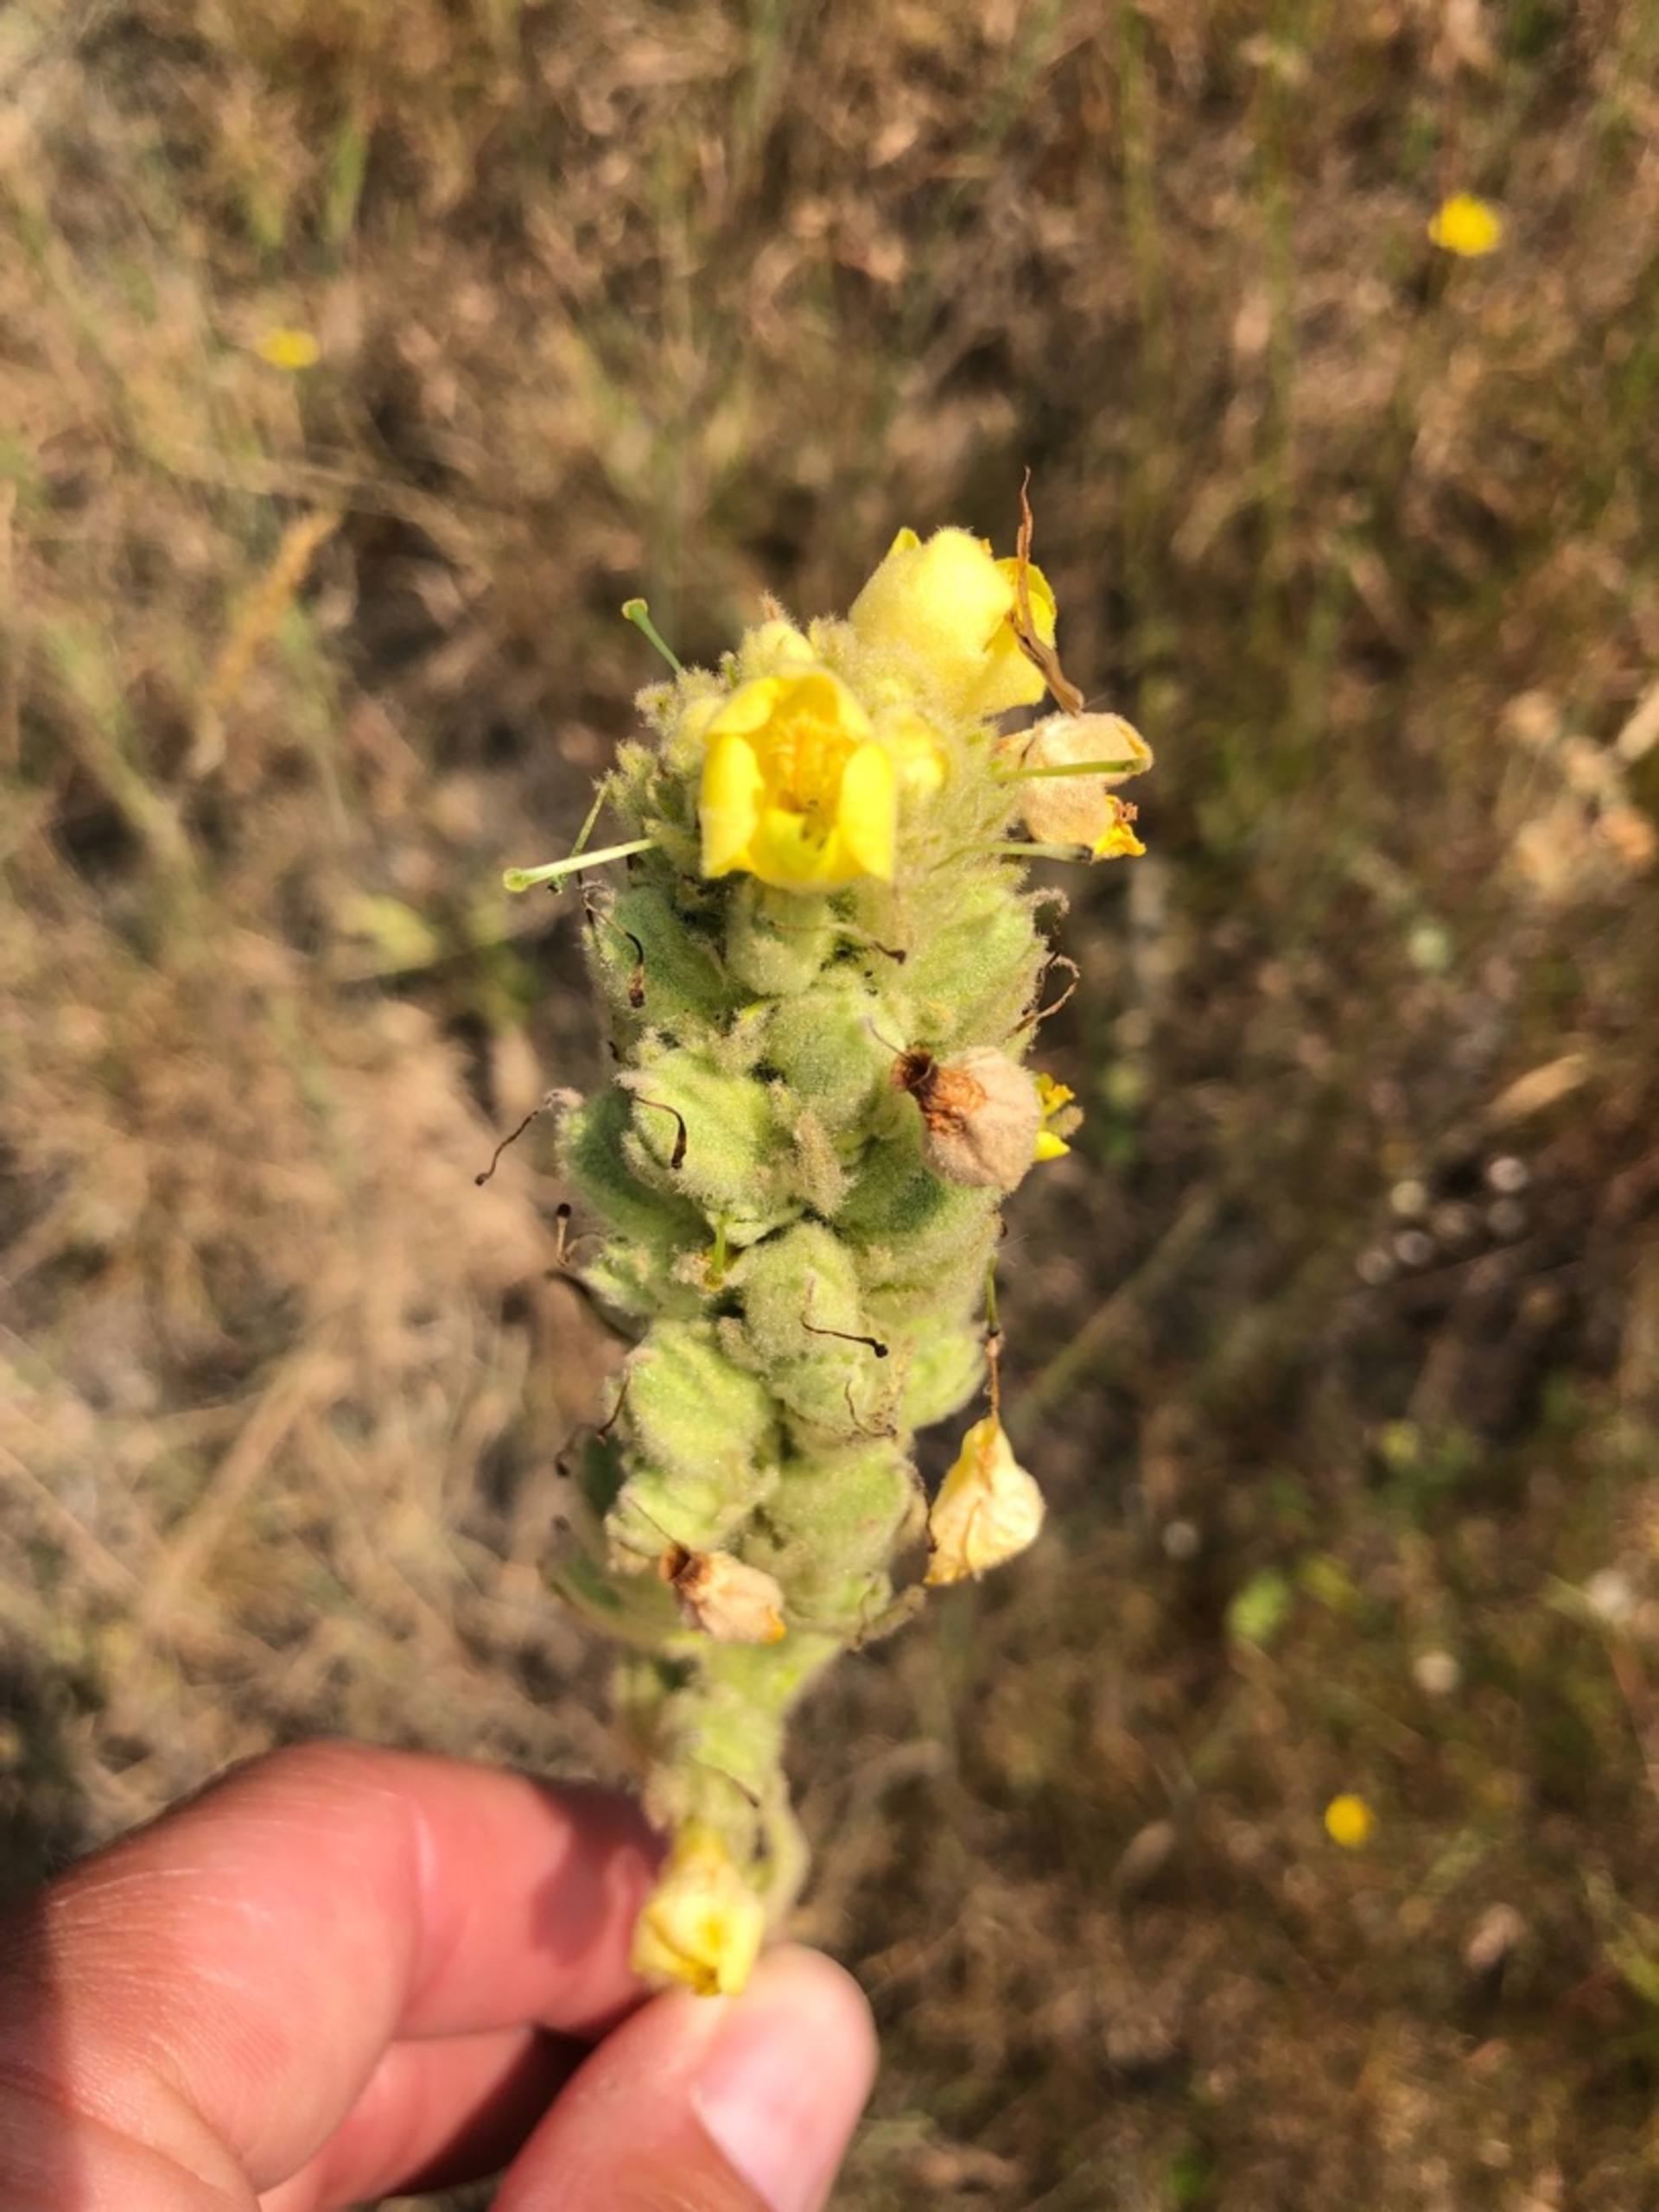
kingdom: Plantae
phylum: Tracheophyta
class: Magnoliopsida
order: Lamiales
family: Scrophulariaceae
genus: Verbascum
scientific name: Verbascum thapsus
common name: Filtbladet kongelys
